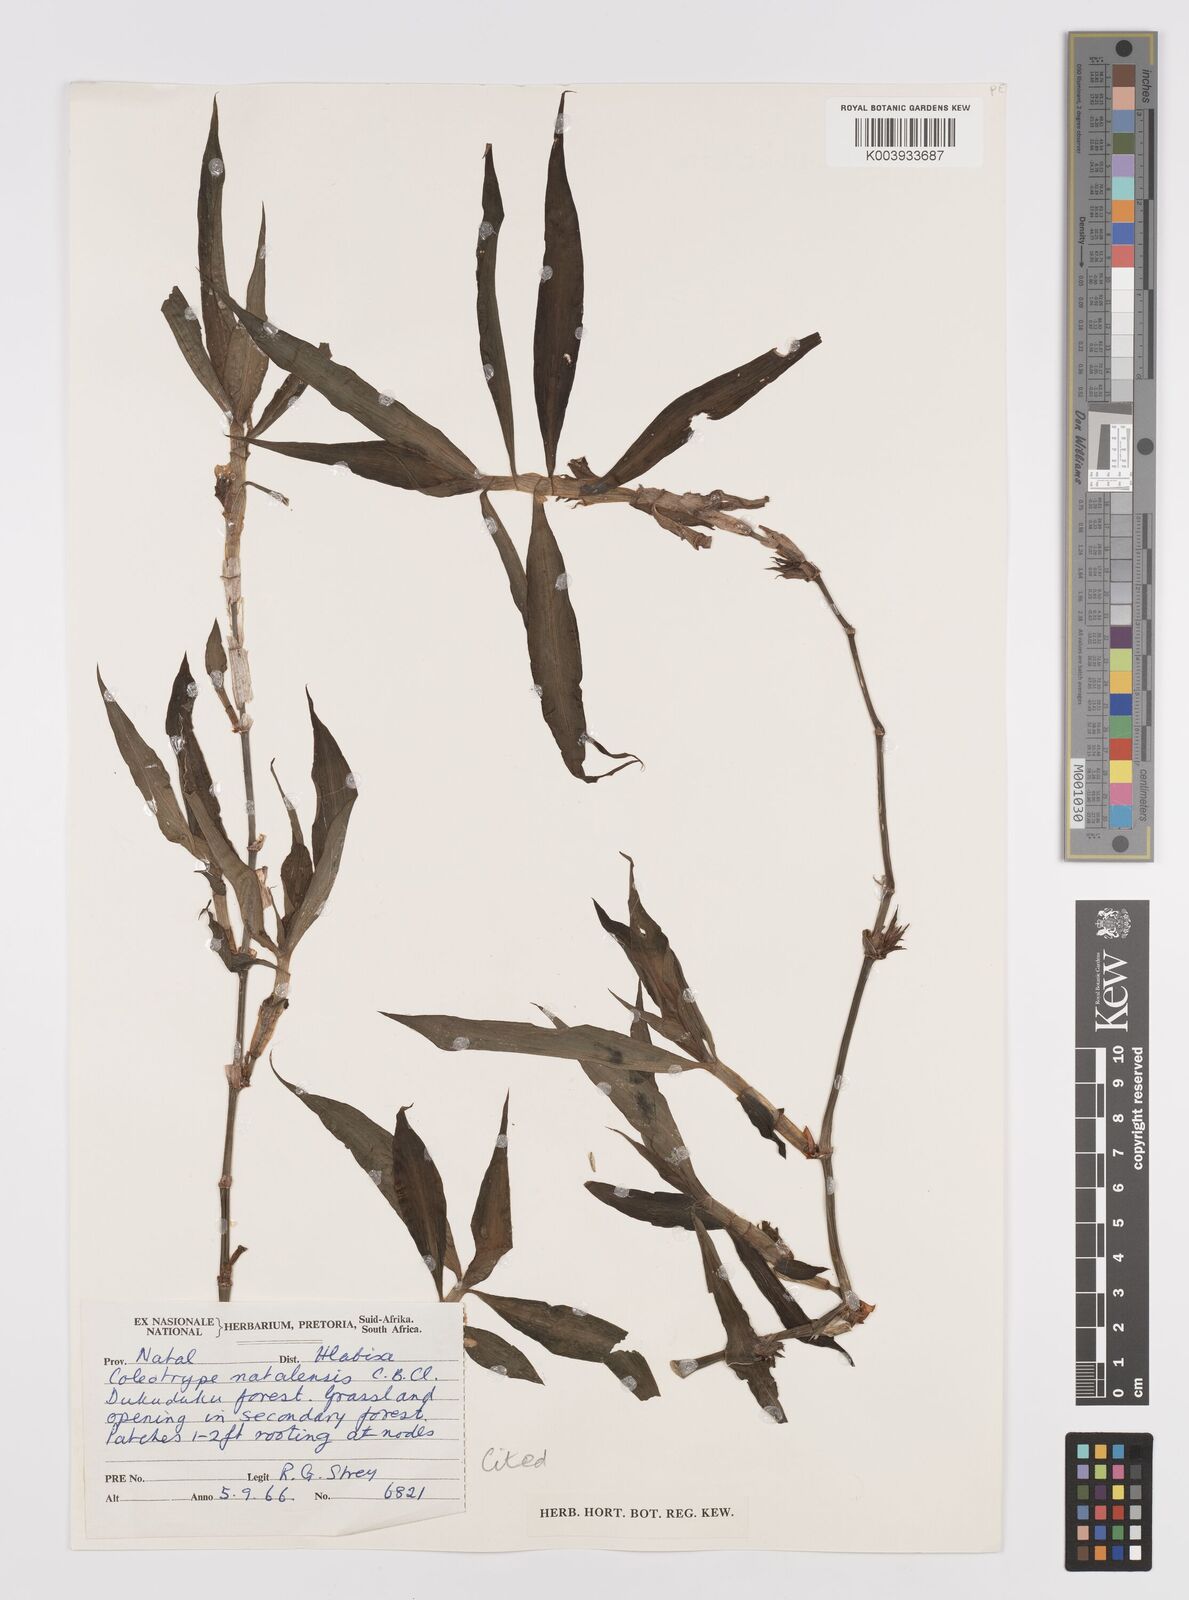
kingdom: Plantae
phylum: Tracheophyta
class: Liliopsida
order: Commelinales
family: Commelinaceae
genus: Coleotrype
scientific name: Coleotrype natalensis
